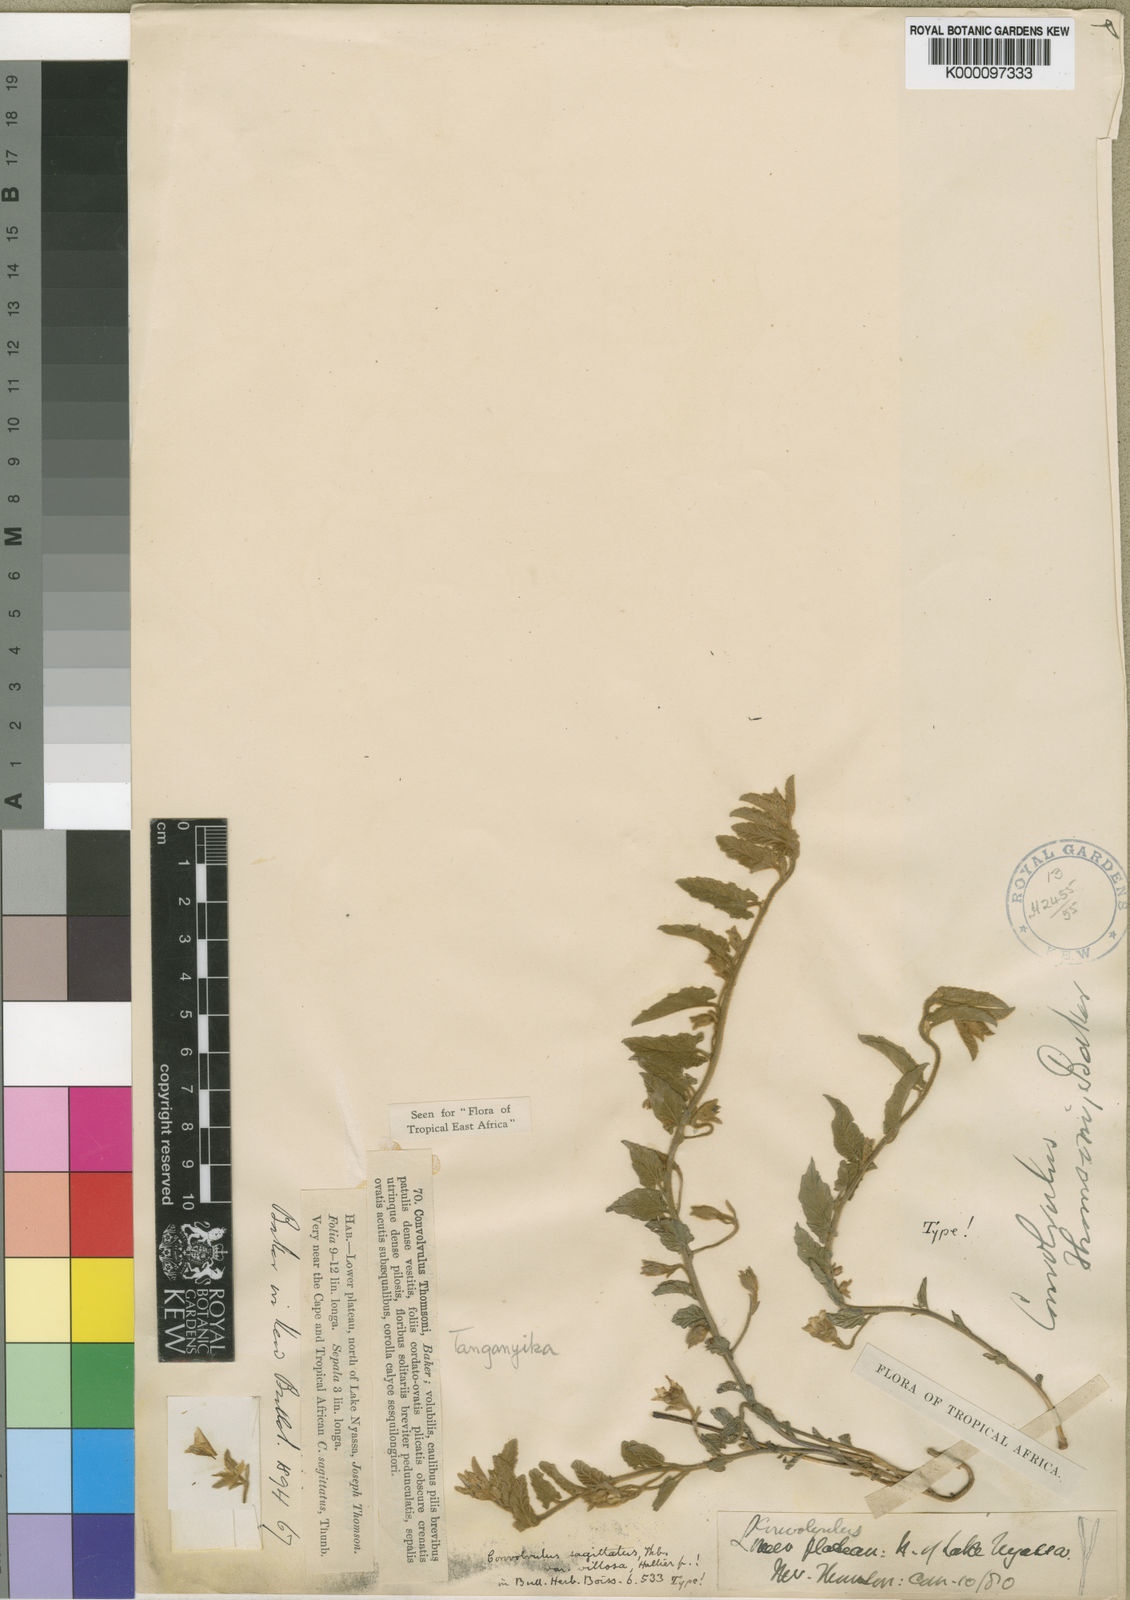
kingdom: Plantae
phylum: Tracheophyta
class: Magnoliopsida
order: Solanales
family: Convolvulaceae
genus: Convolvulus
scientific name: Convolvulus sagittatus
